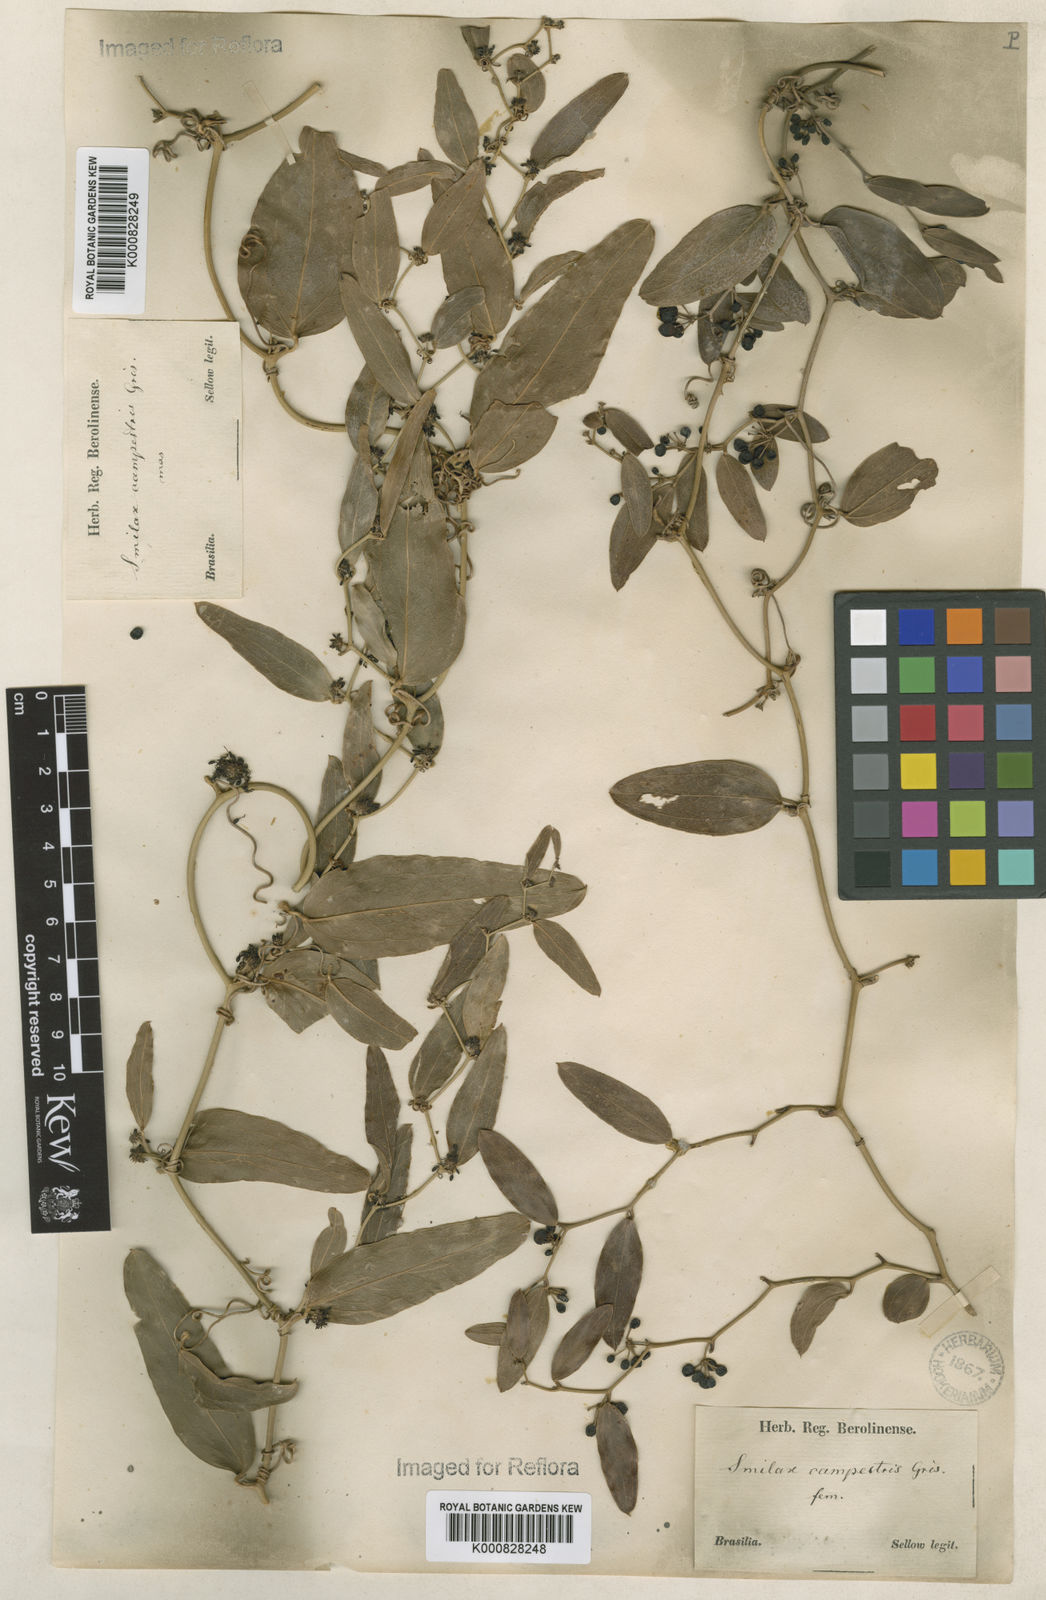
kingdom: Plantae
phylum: Tracheophyta
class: Liliopsida
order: Liliales
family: Smilacaceae
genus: Smilax
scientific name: Smilax campestris
